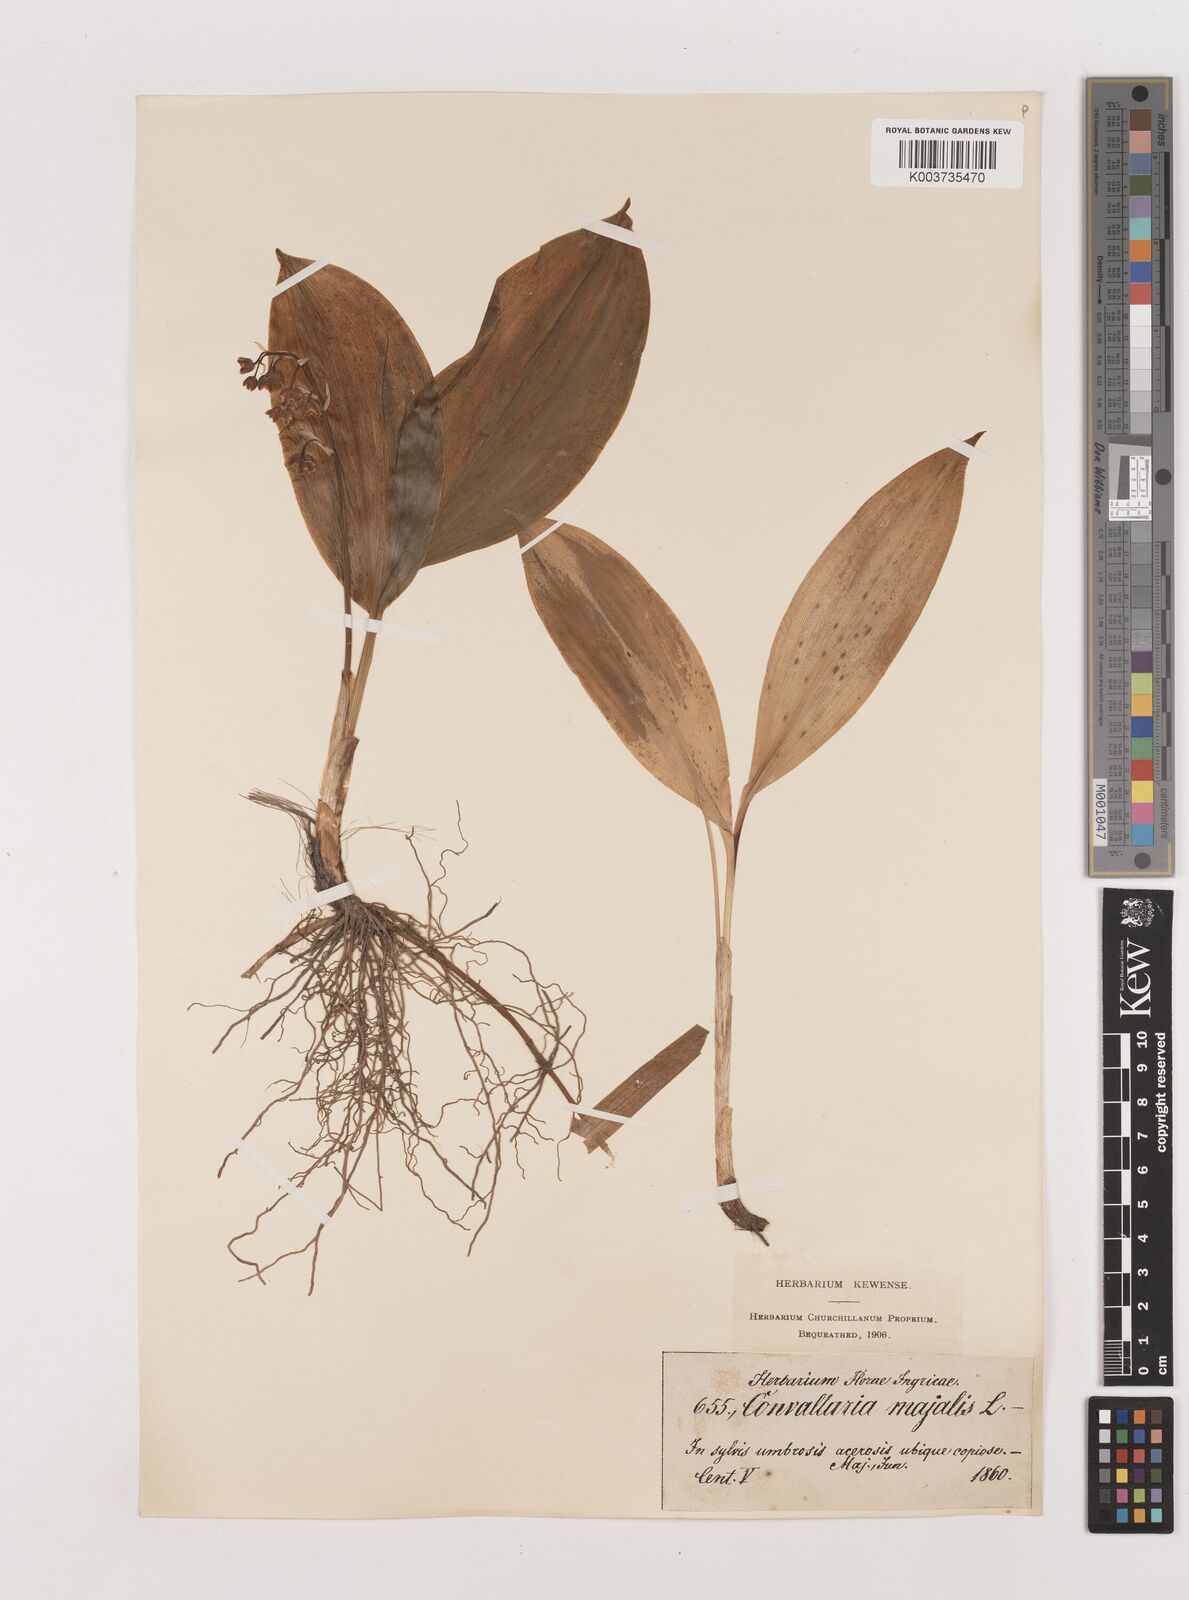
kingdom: Plantae
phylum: Tracheophyta
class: Liliopsida
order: Asparagales
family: Asparagaceae
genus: Convallaria
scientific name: Convallaria majalis
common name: Lily-of-the-valley
